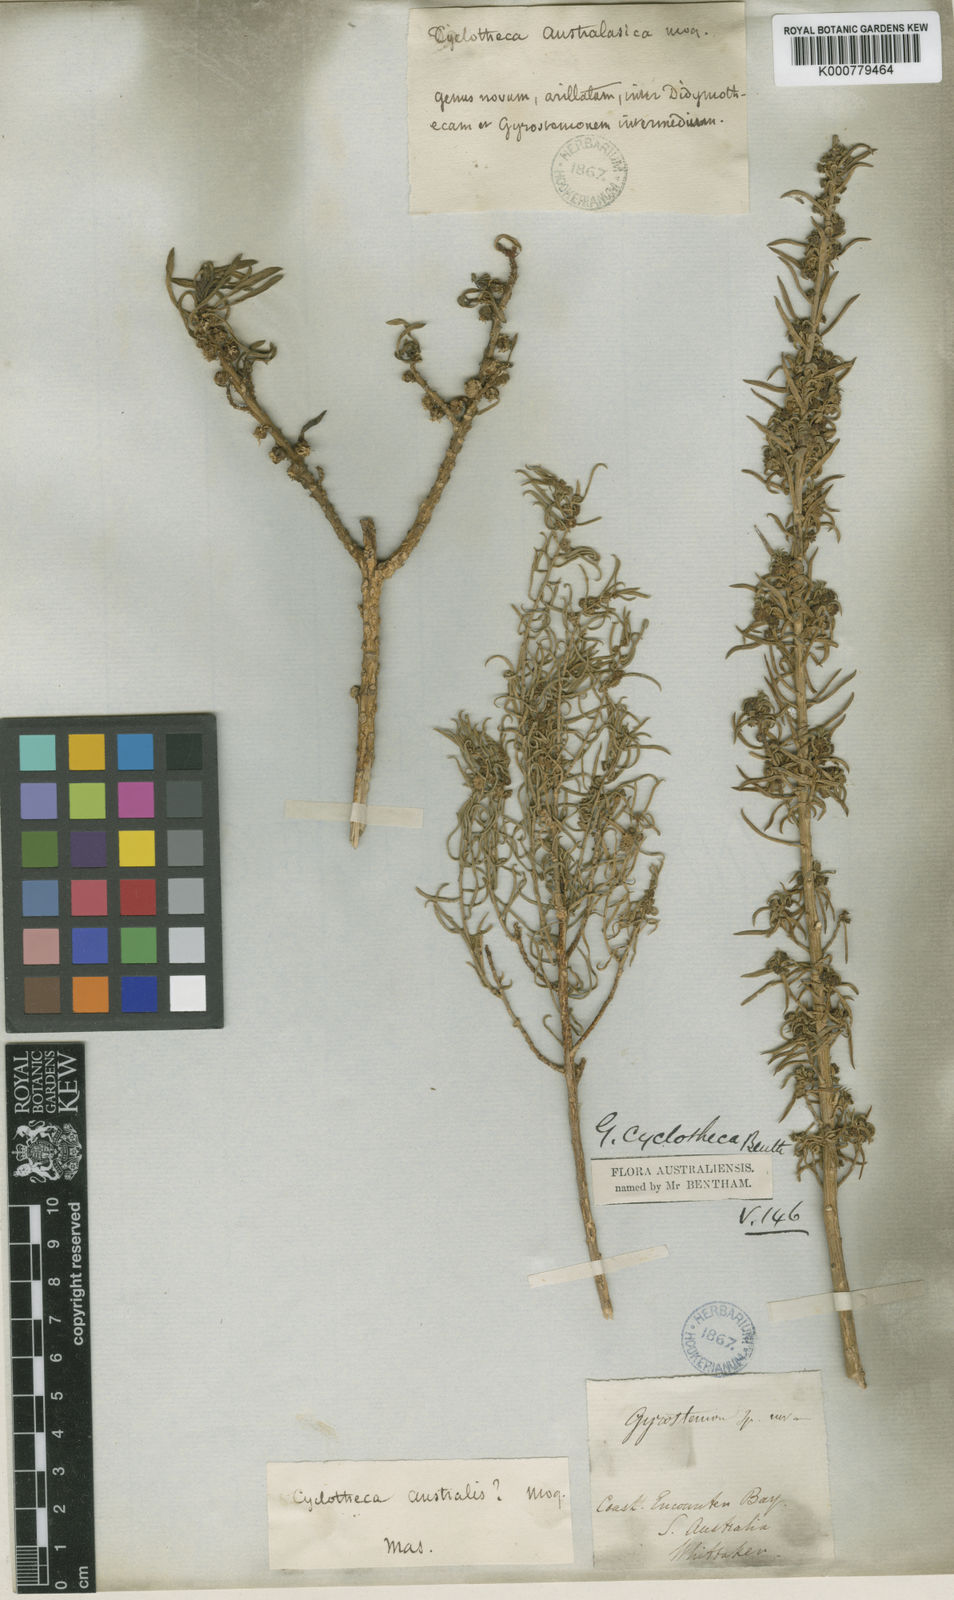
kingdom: Plantae
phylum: Tracheophyta
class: Magnoliopsida
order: Brassicales
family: Gyrostemonaceae
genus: Gyrostemon
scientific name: Gyrostemon australasicus
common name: Wheelfruit
